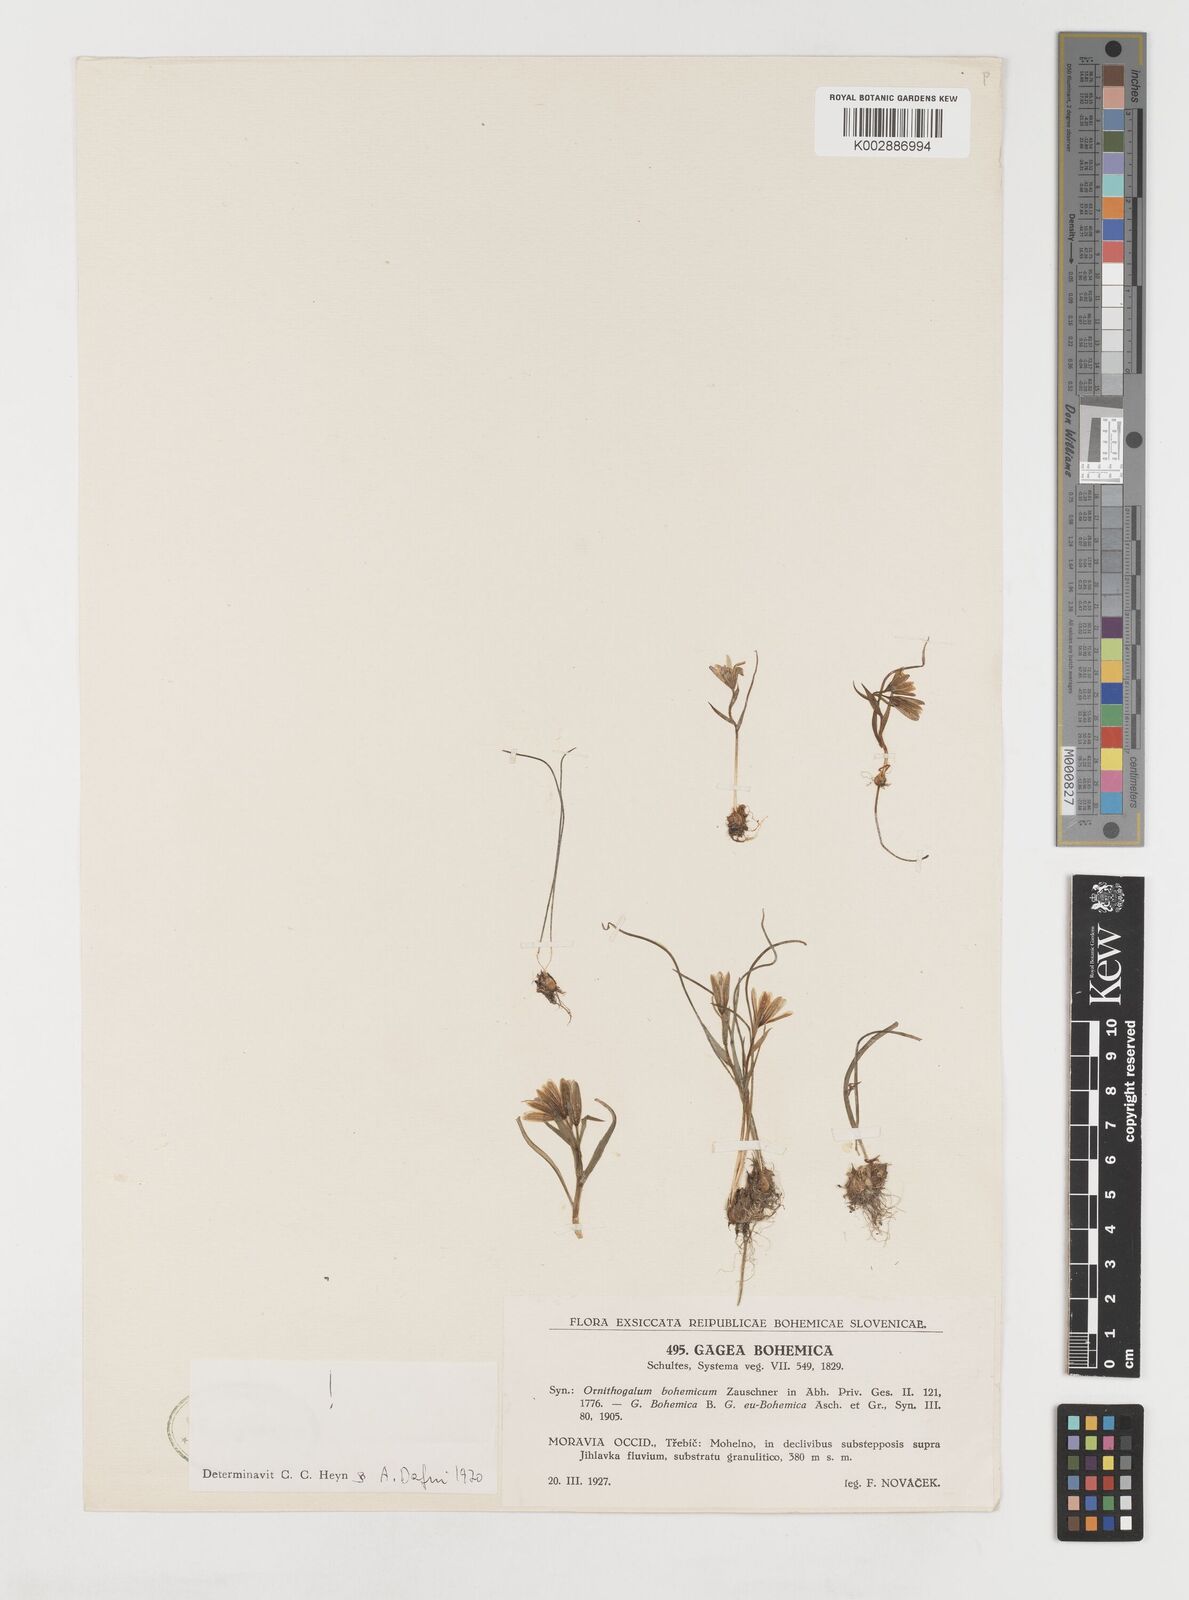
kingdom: Plantae
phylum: Tracheophyta
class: Liliopsida
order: Liliales
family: Liliaceae
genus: Gagea
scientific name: Gagea bohemica
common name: Early star-of-bethlehem
